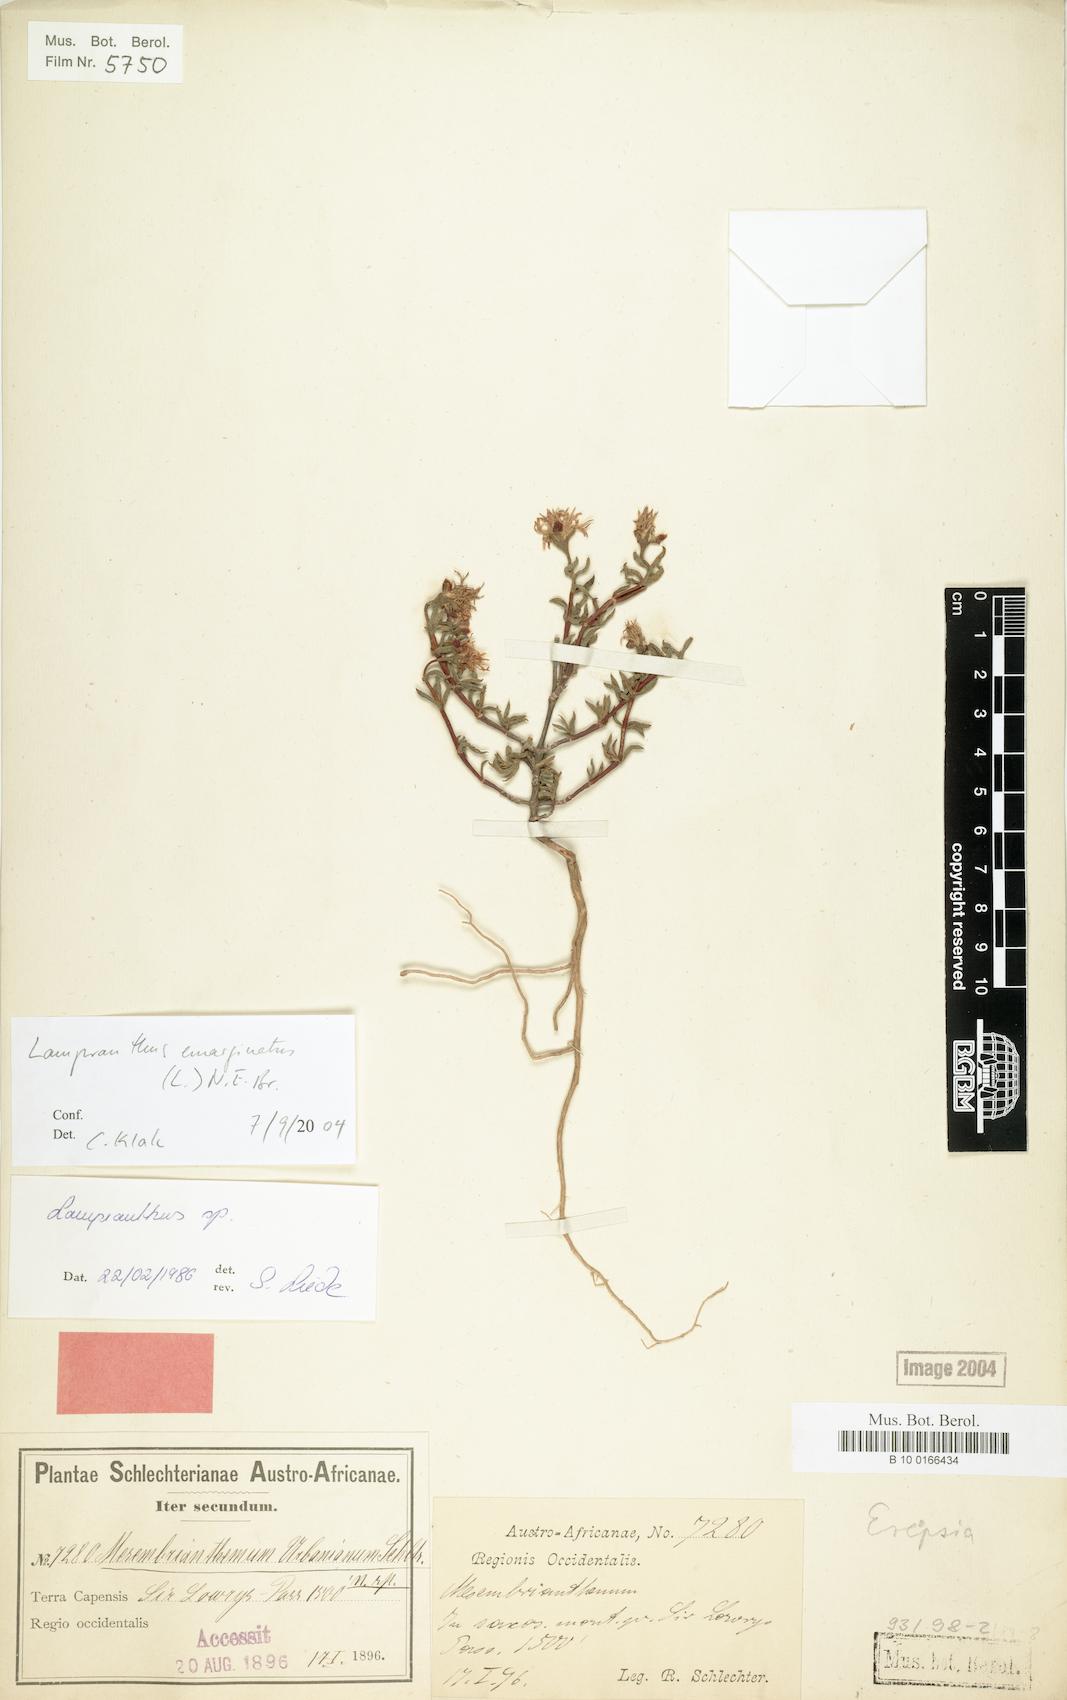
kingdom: Plantae
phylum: Tracheophyta
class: Magnoliopsida
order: Caryophyllales
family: Aizoaceae
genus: Lampranthus
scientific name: Lampranthus emarginatus
